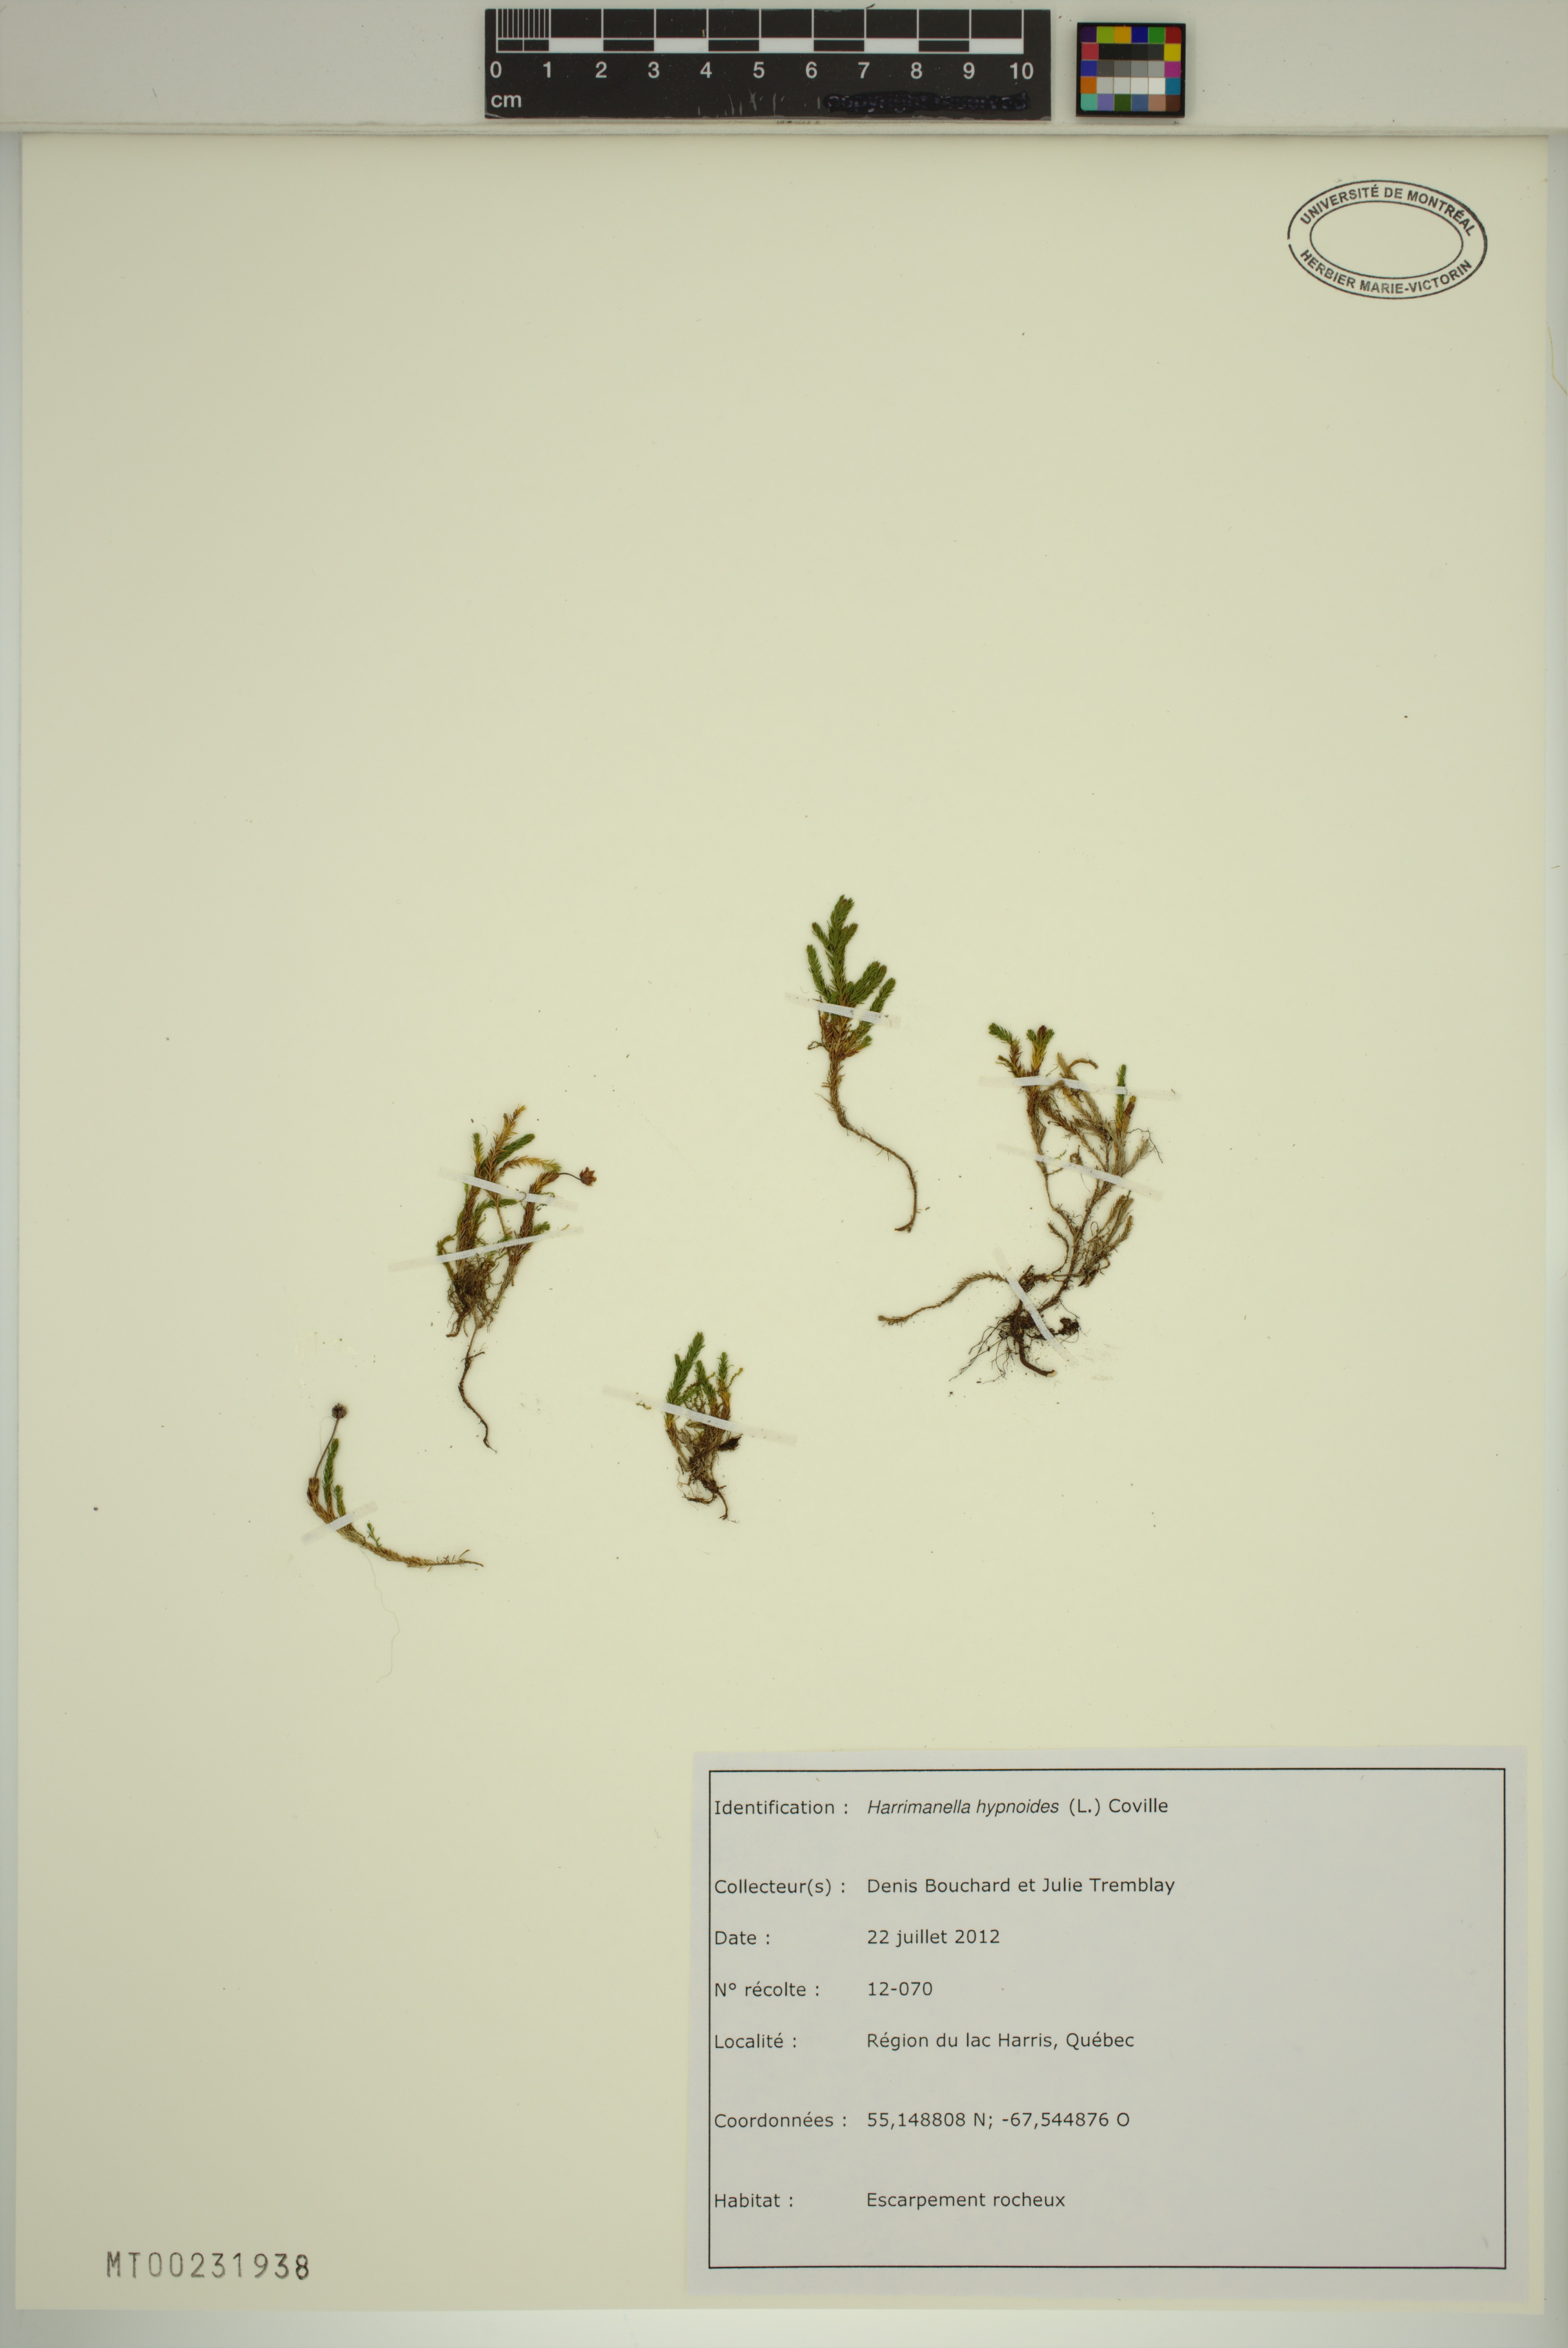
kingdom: Plantae
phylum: Tracheophyta
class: Magnoliopsida
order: Ericales
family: Ericaceae
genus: Harrimanella
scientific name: Harrimanella hypnoides
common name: Moss bell heather
